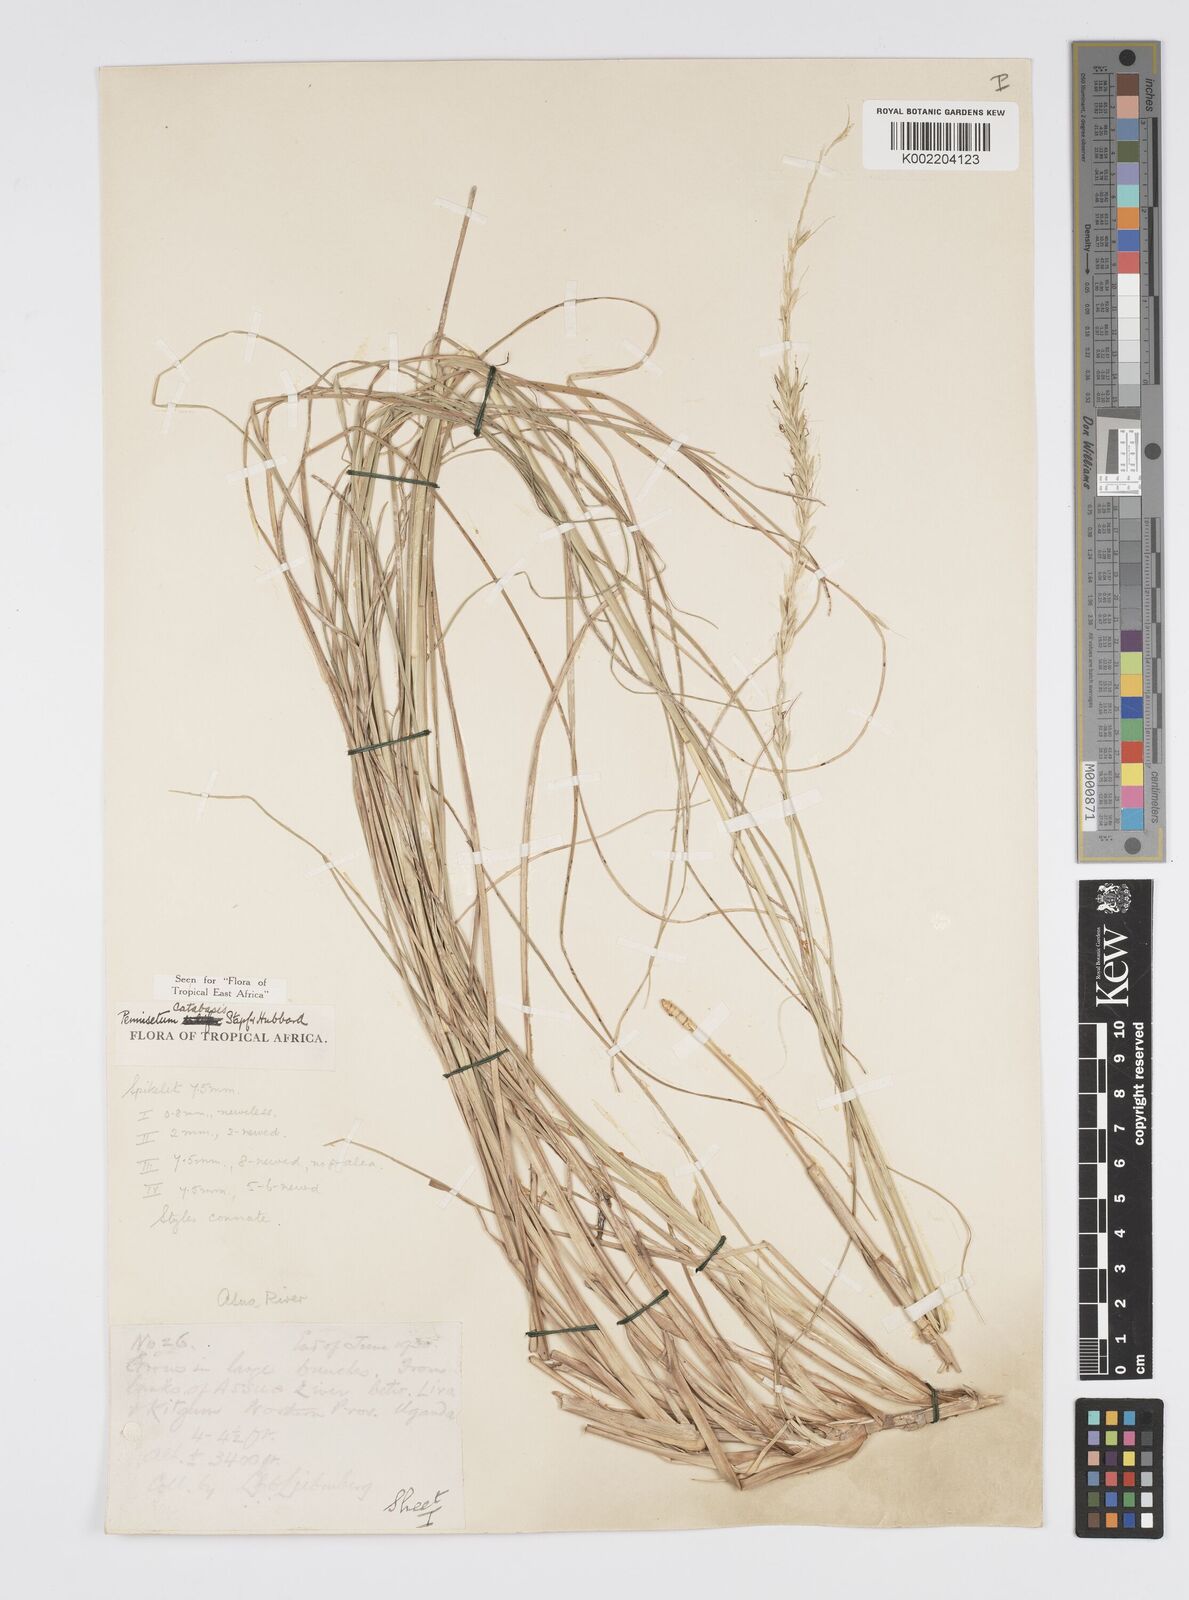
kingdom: Plantae
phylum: Tracheophyta
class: Liliopsida
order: Poales
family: Poaceae
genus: Cenchrus
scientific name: Cenchrus hohenackeri
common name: Moya grass
